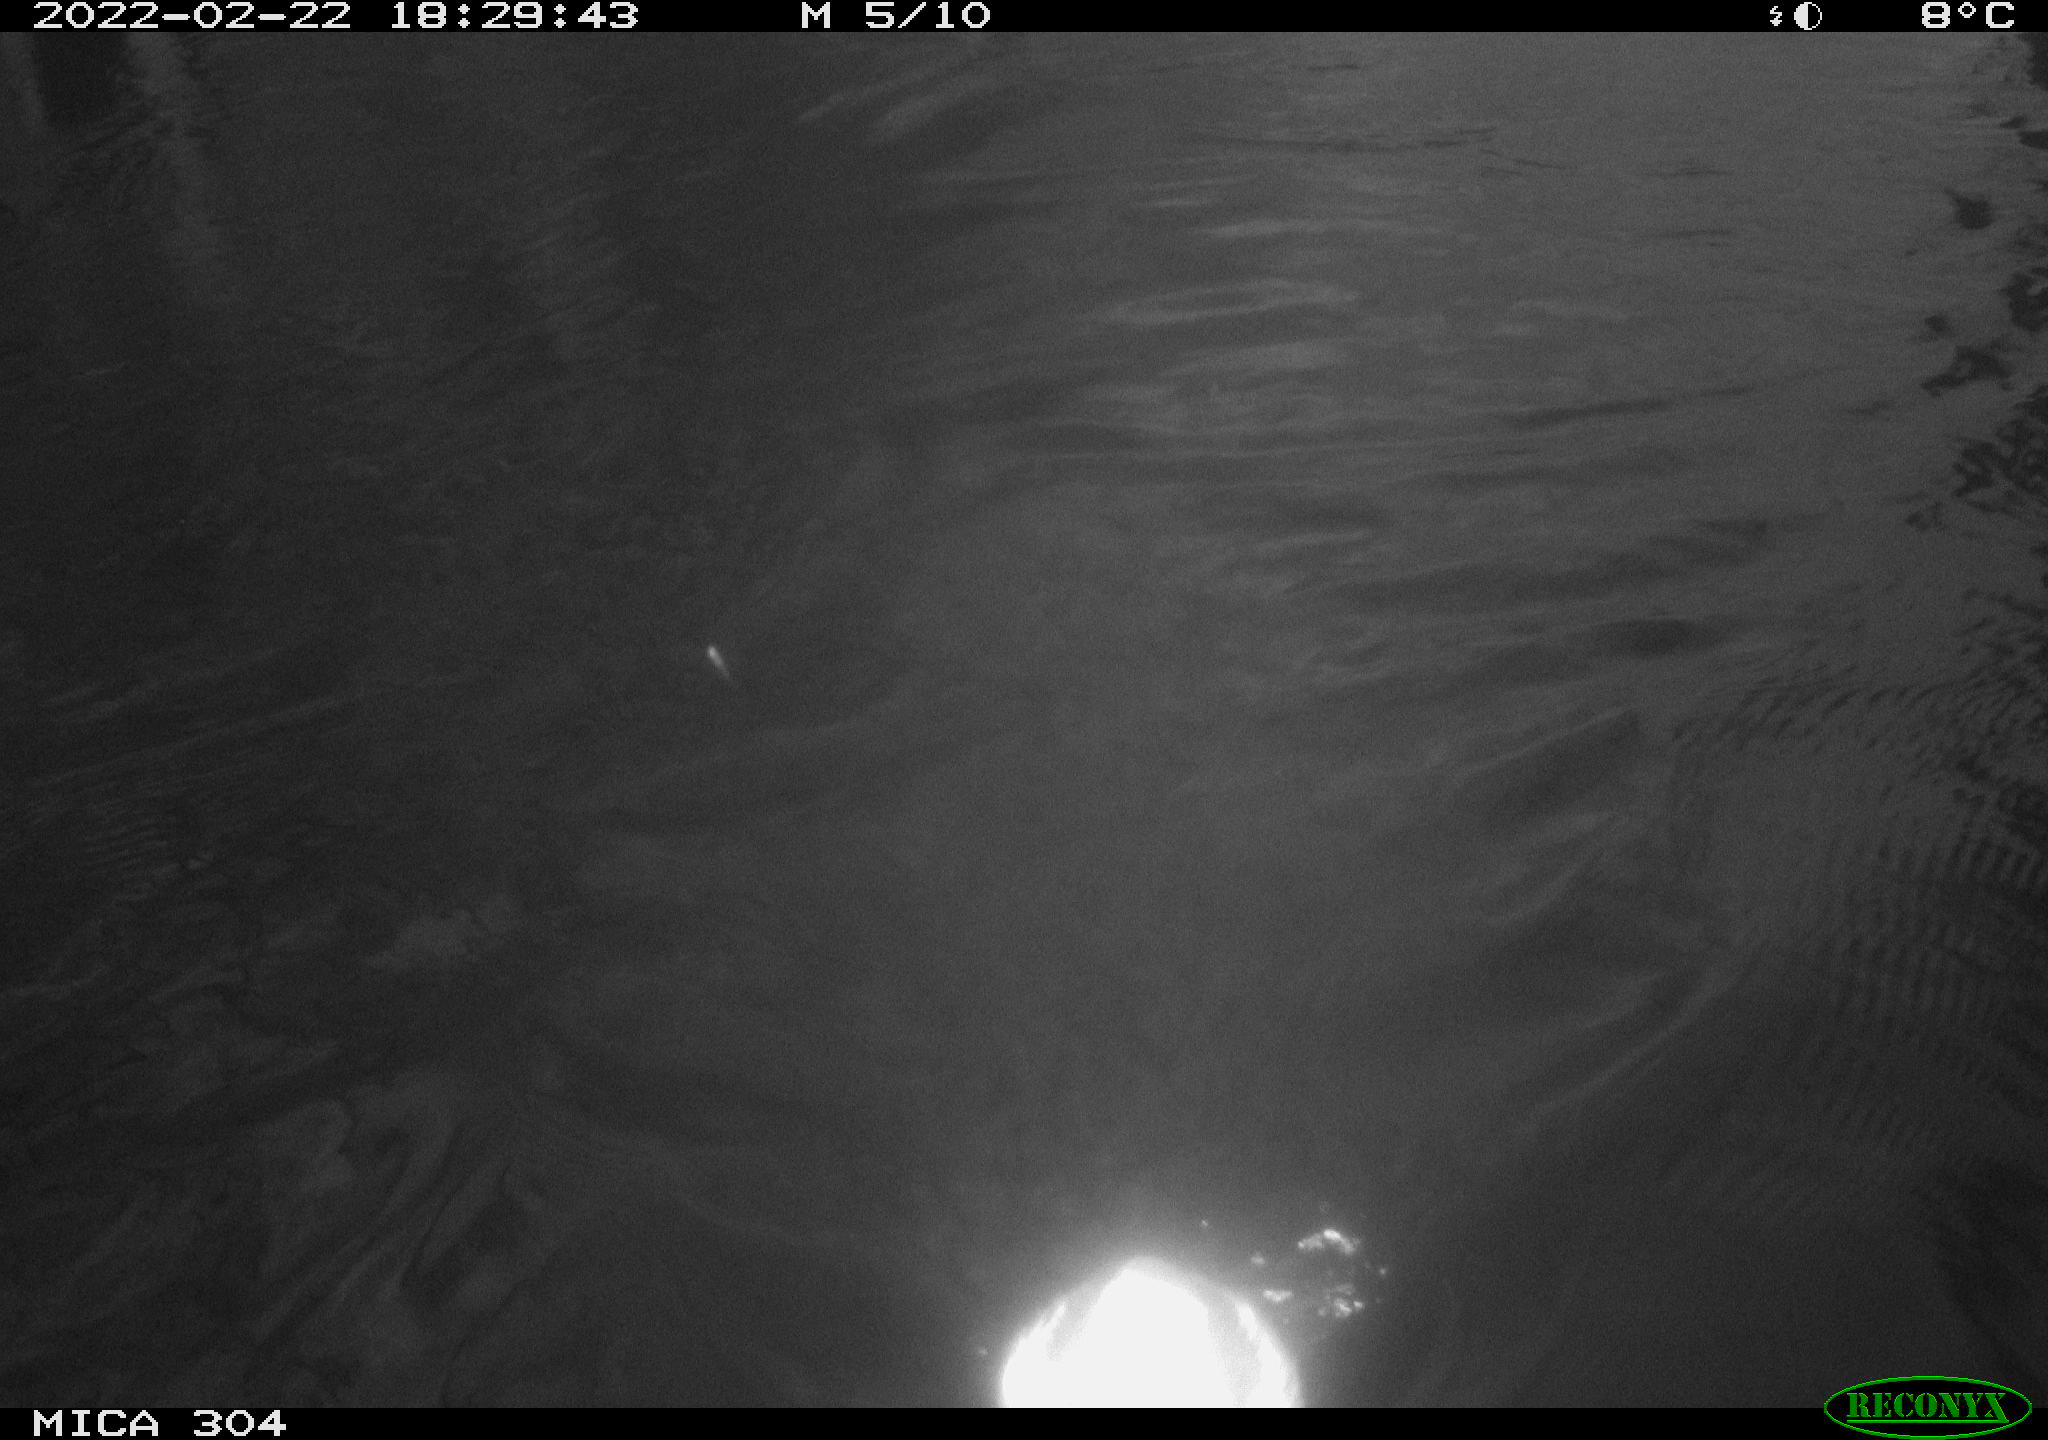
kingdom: Animalia
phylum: Chordata
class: Aves
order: Gruiformes
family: Rallidae
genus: Gallinula
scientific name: Gallinula chloropus
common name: Common moorhen
